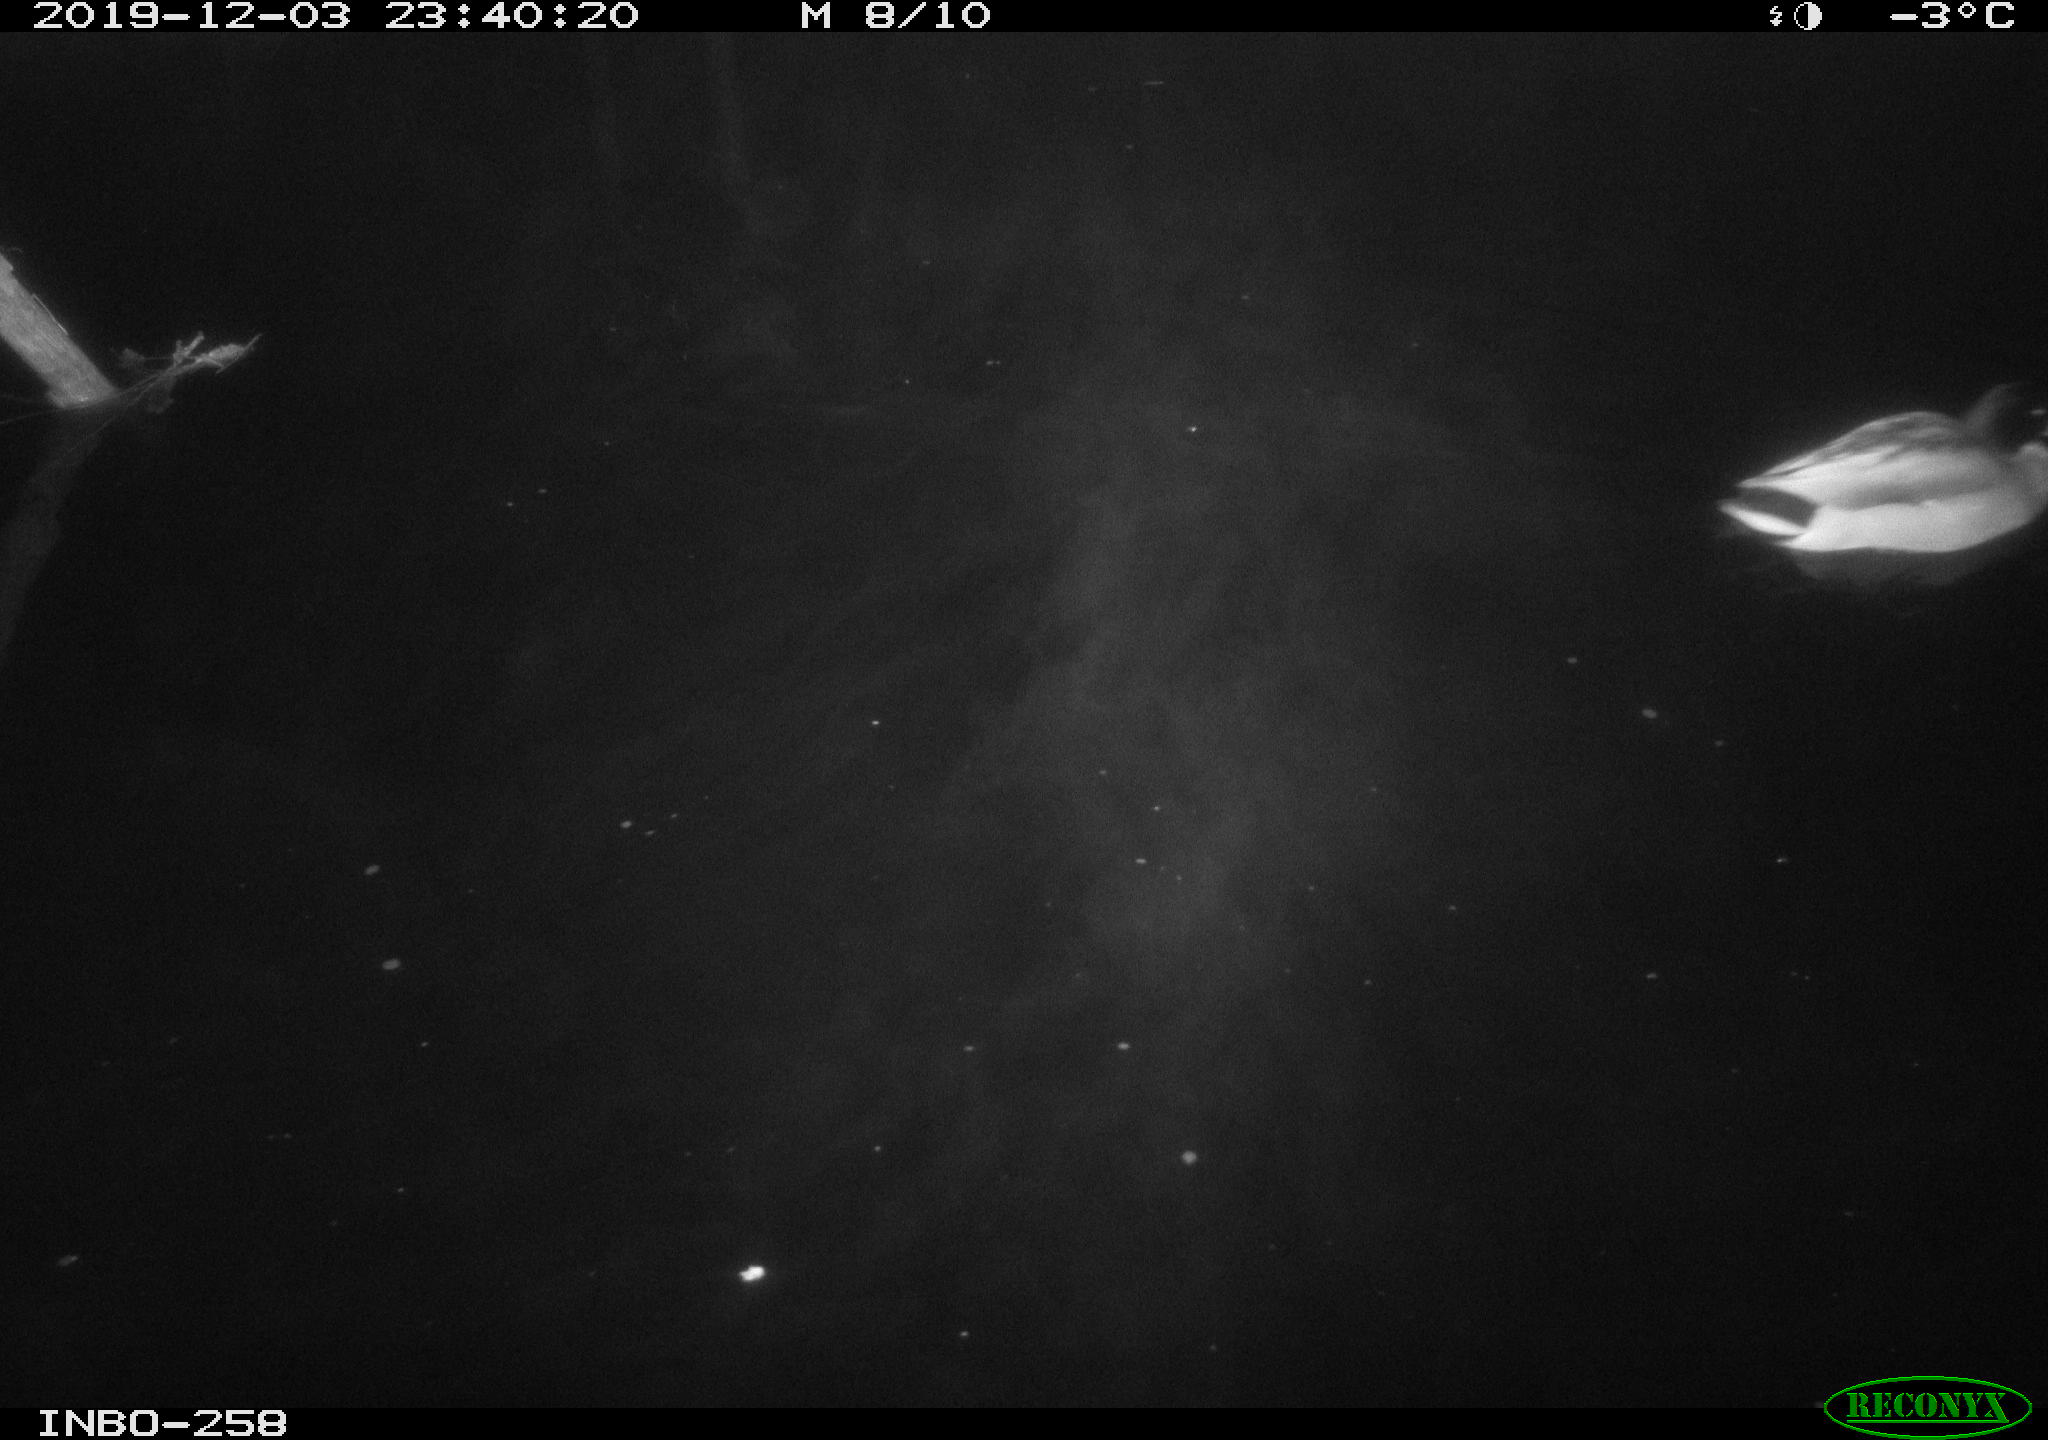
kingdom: Animalia
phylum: Chordata
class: Aves
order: Anseriformes
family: Anatidae
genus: Anas
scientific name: Anas platyrhynchos
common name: Mallard
